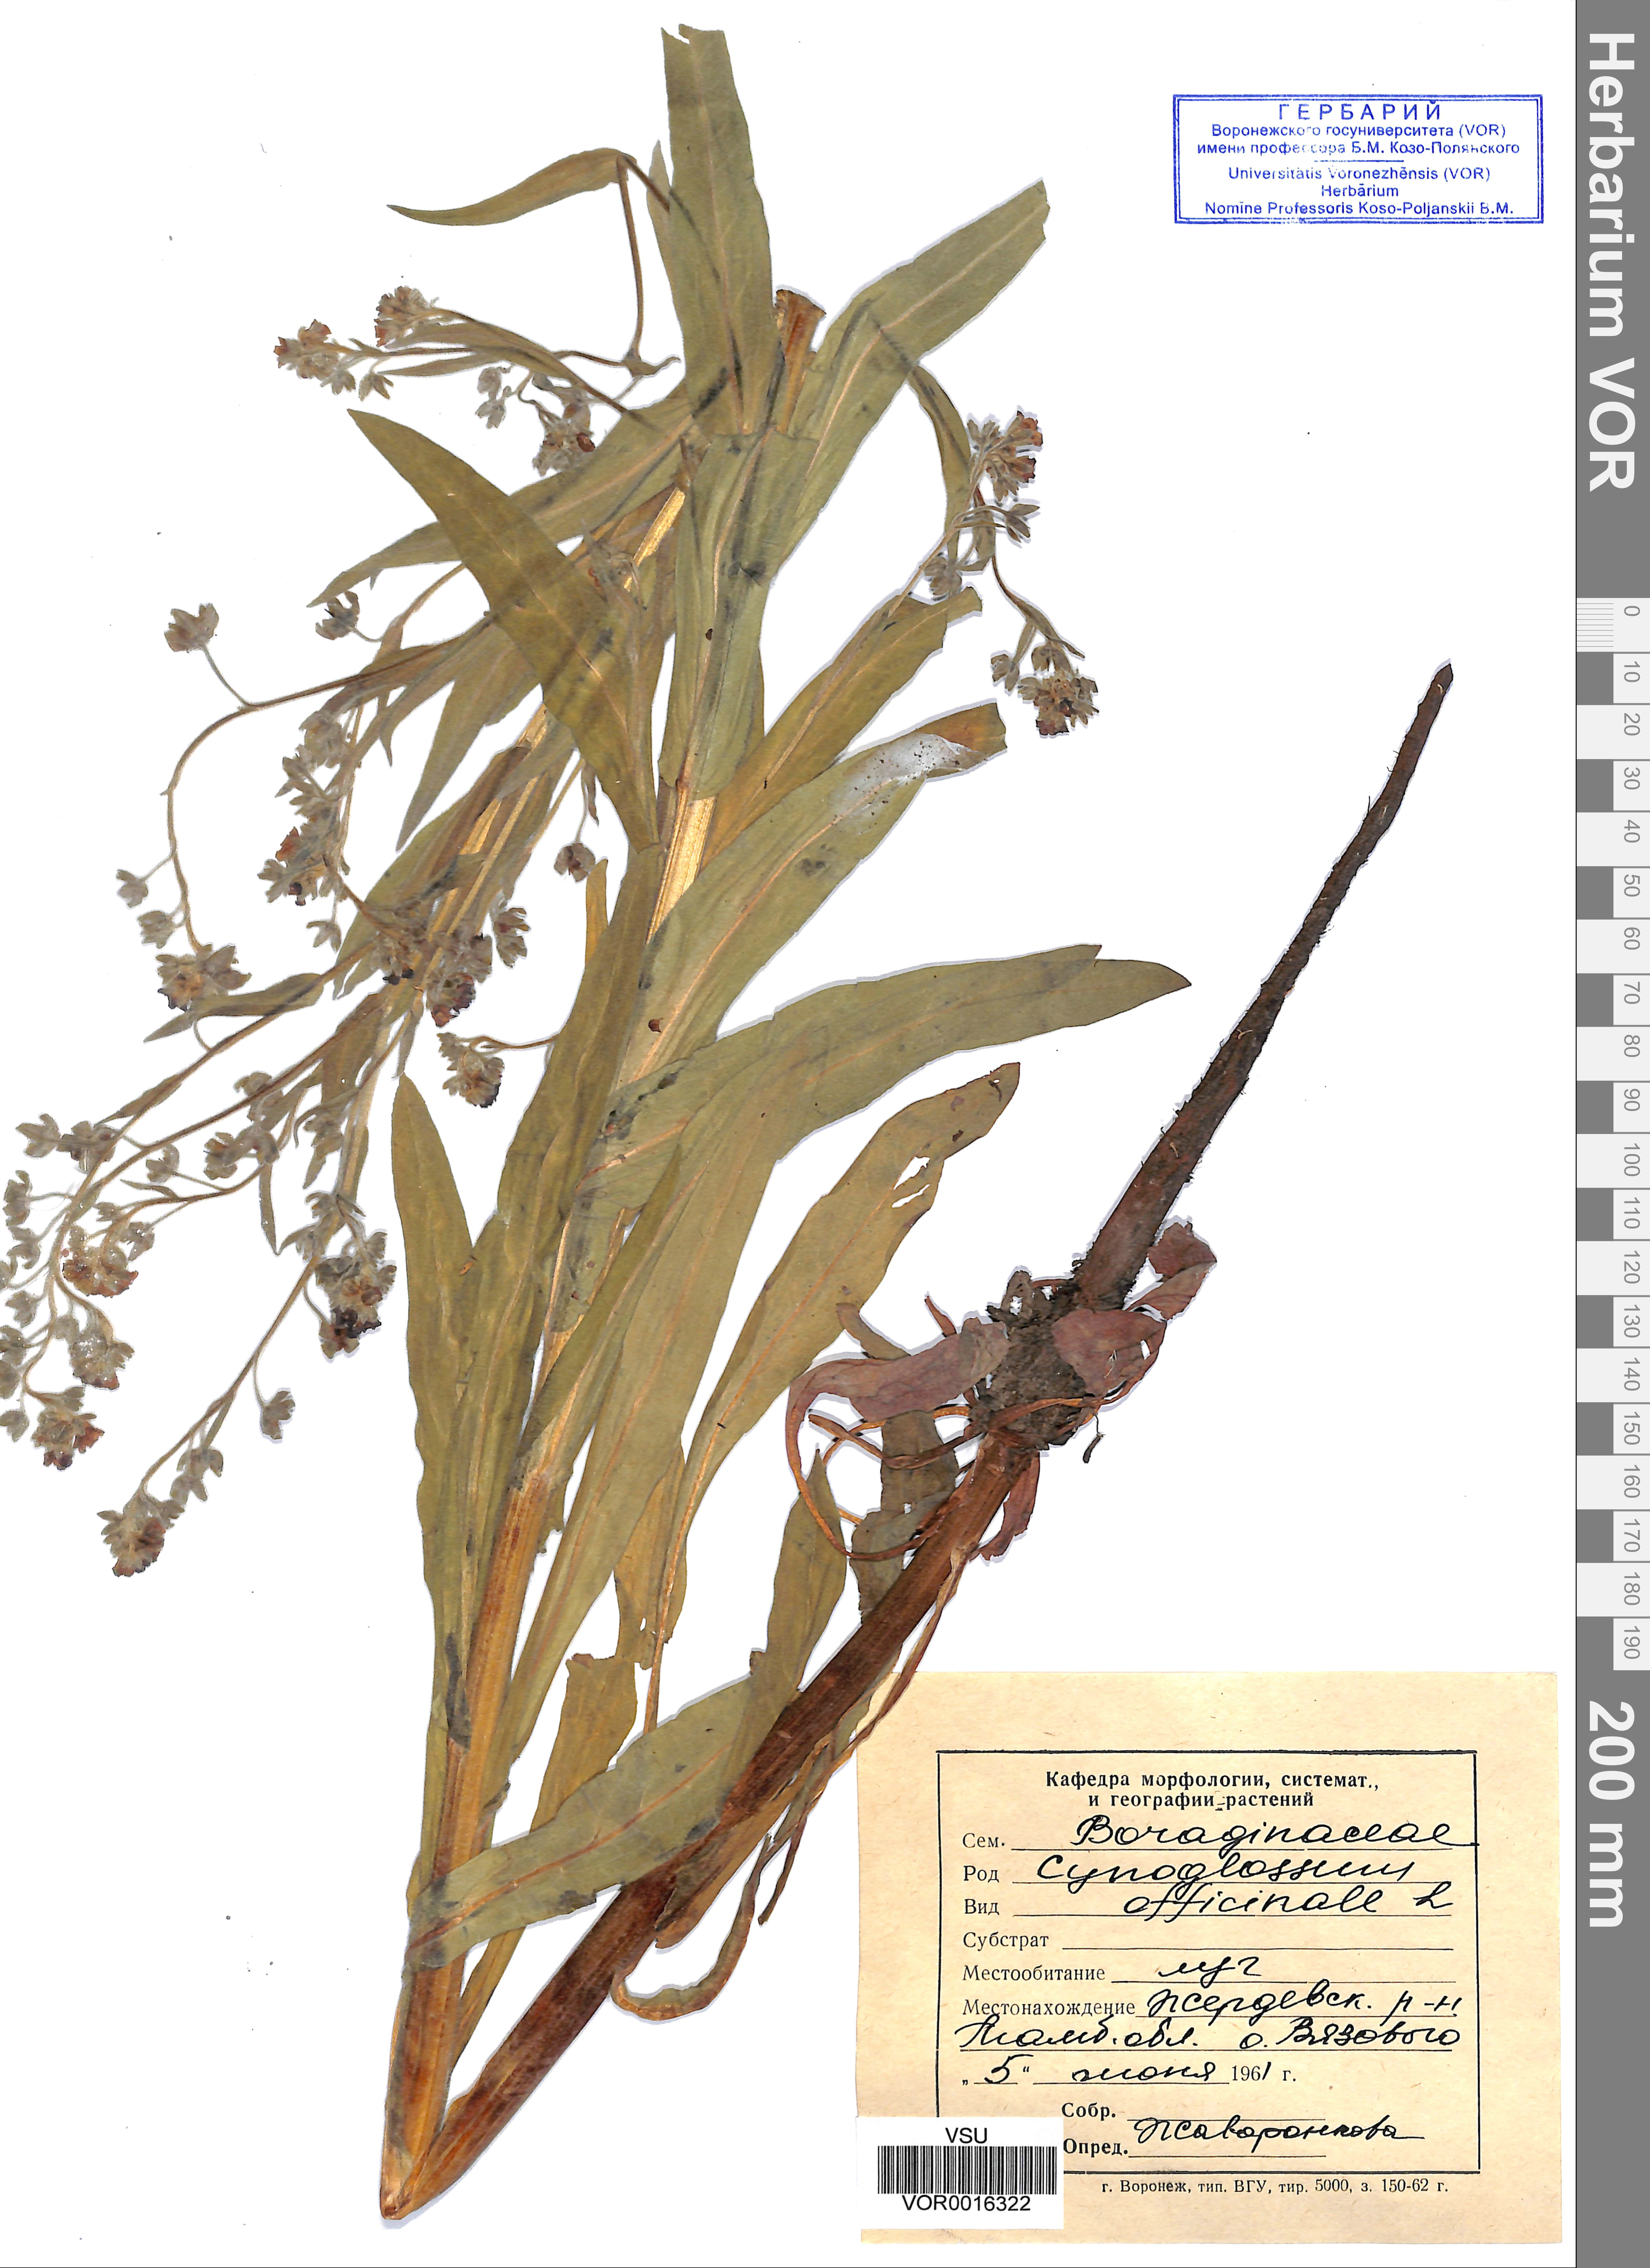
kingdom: Plantae
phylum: Tracheophyta
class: Magnoliopsida
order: Boraginales
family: Boraginaceae
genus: Cynoglossum
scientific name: Cynoglossum officinale
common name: Hound's-tongue
